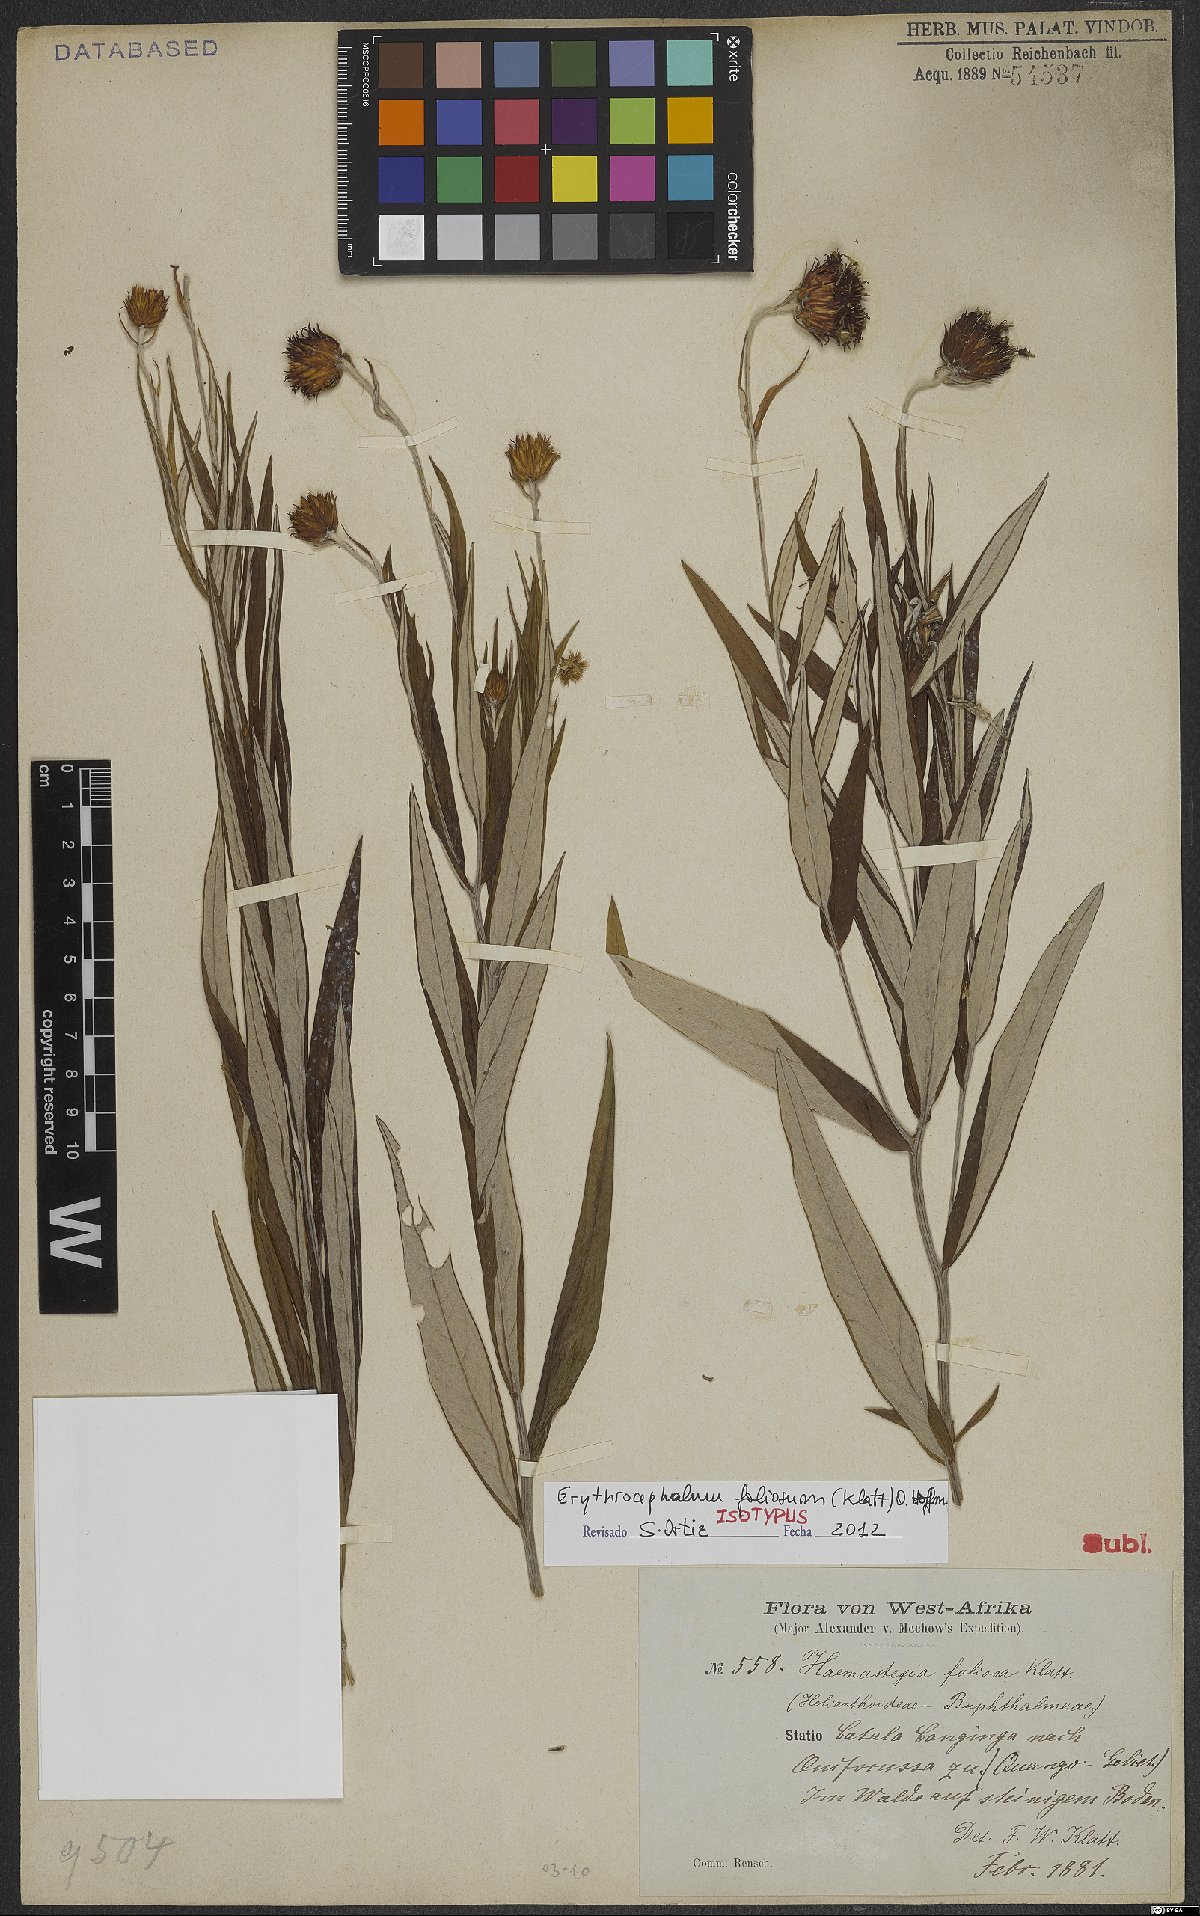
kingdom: Plantae
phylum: Tracheophyta
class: Magnoliopsida
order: Asterales
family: Asteraceae
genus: Erythrocephalum
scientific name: Erythrocephalum dianthiflorum
